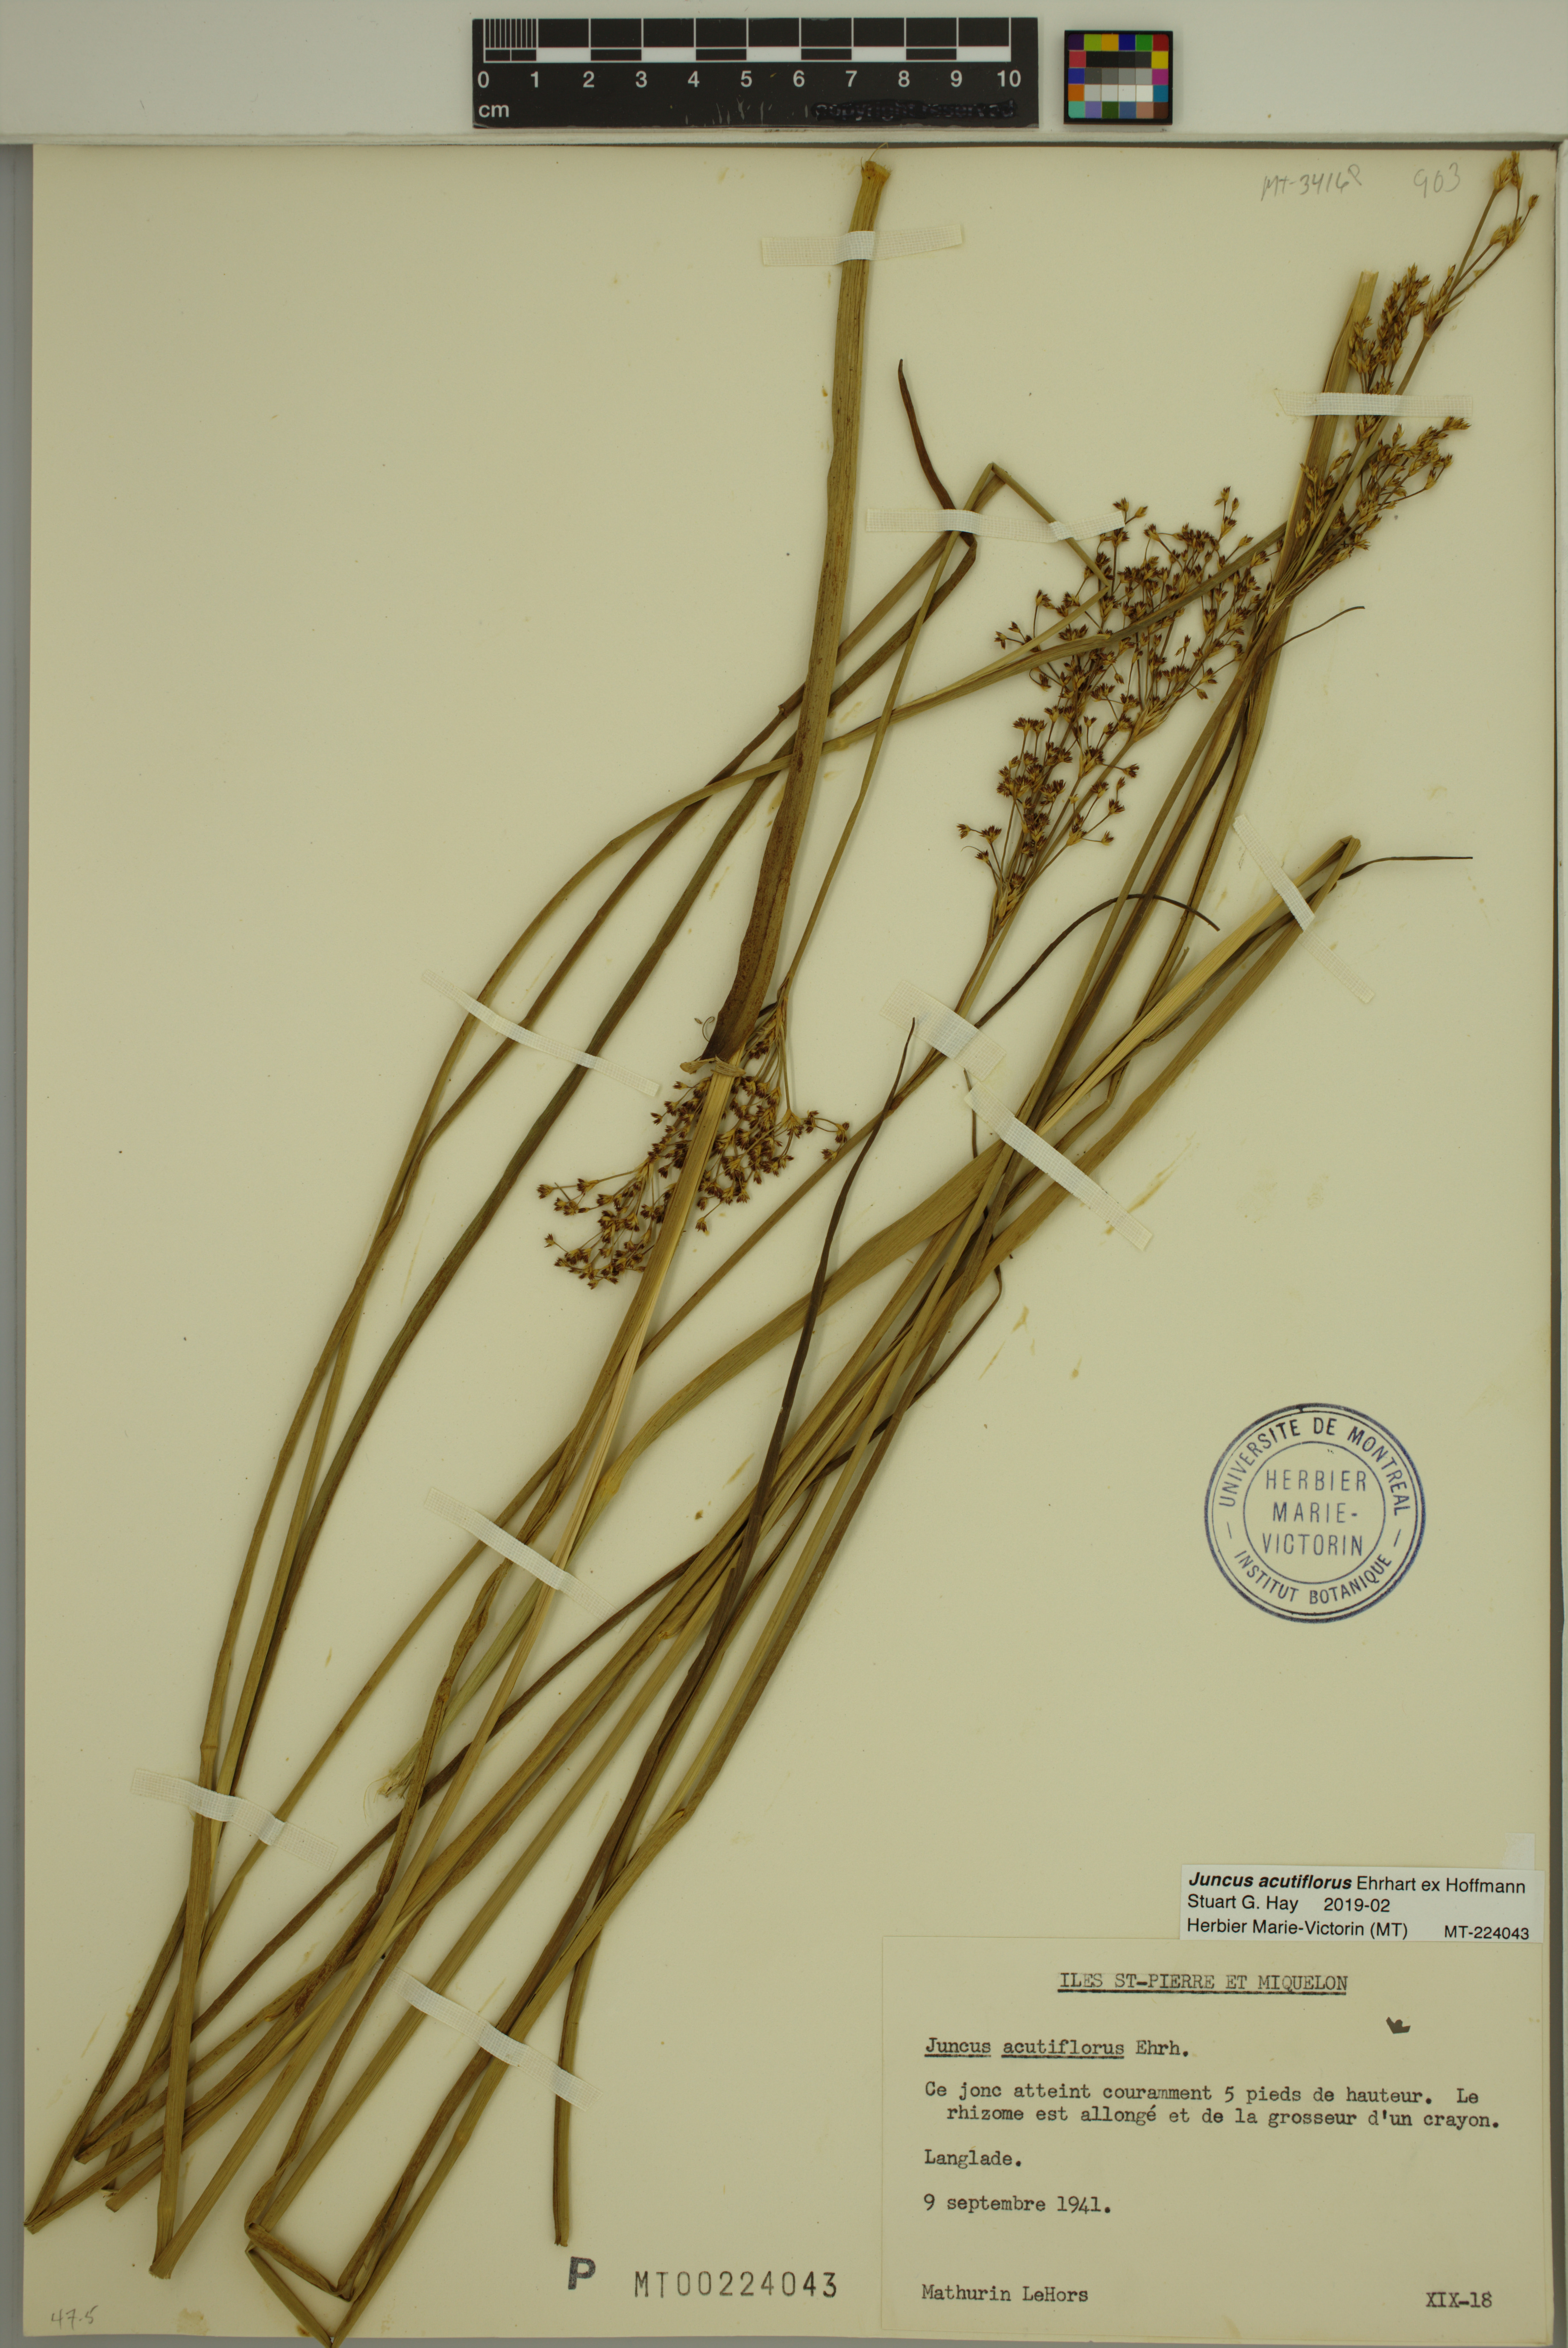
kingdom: Plantae
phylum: Tracheophyta
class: Liliopsida
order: Poales
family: Juncaceae
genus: Juncus
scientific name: Juncus acutiflorus
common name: Sharp-flowered rush
